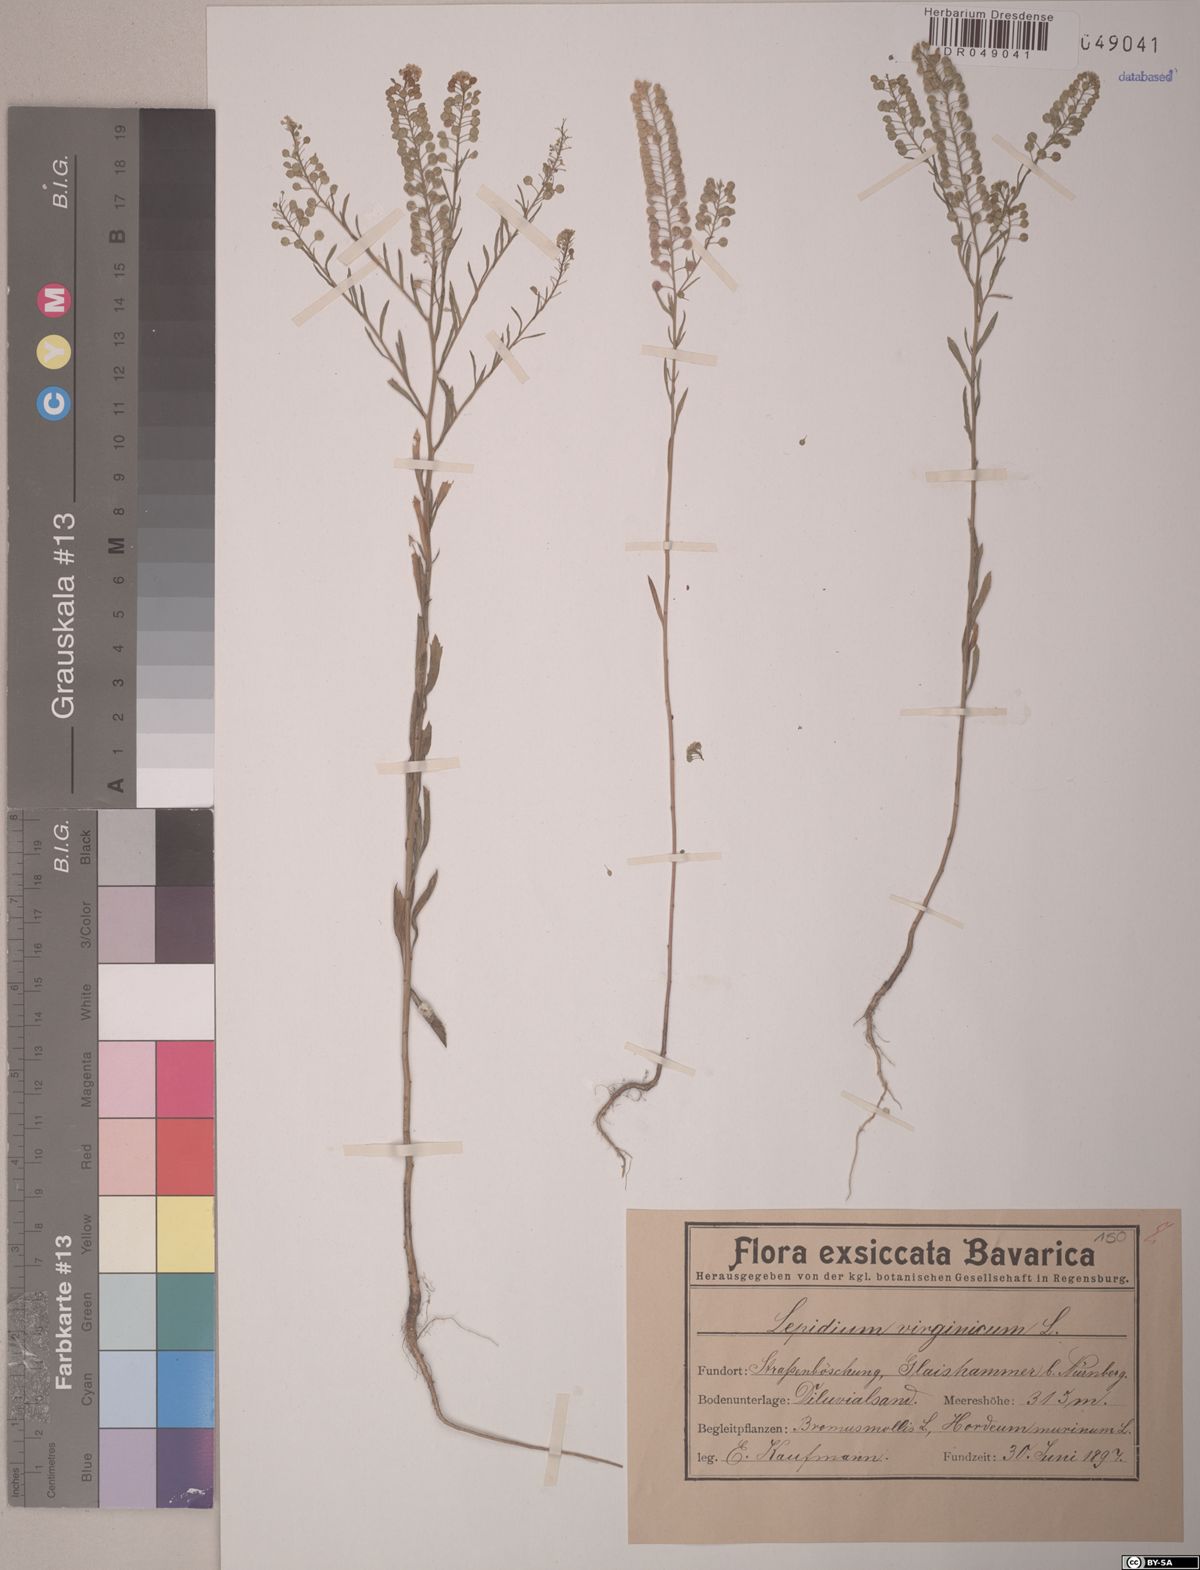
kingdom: Plantae
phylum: Tracheophyta
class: Magnoliopsida
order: Brassicales
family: Brassicaceae
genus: Lepidium
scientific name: Lepidium virginicum
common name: Least pepperwort
